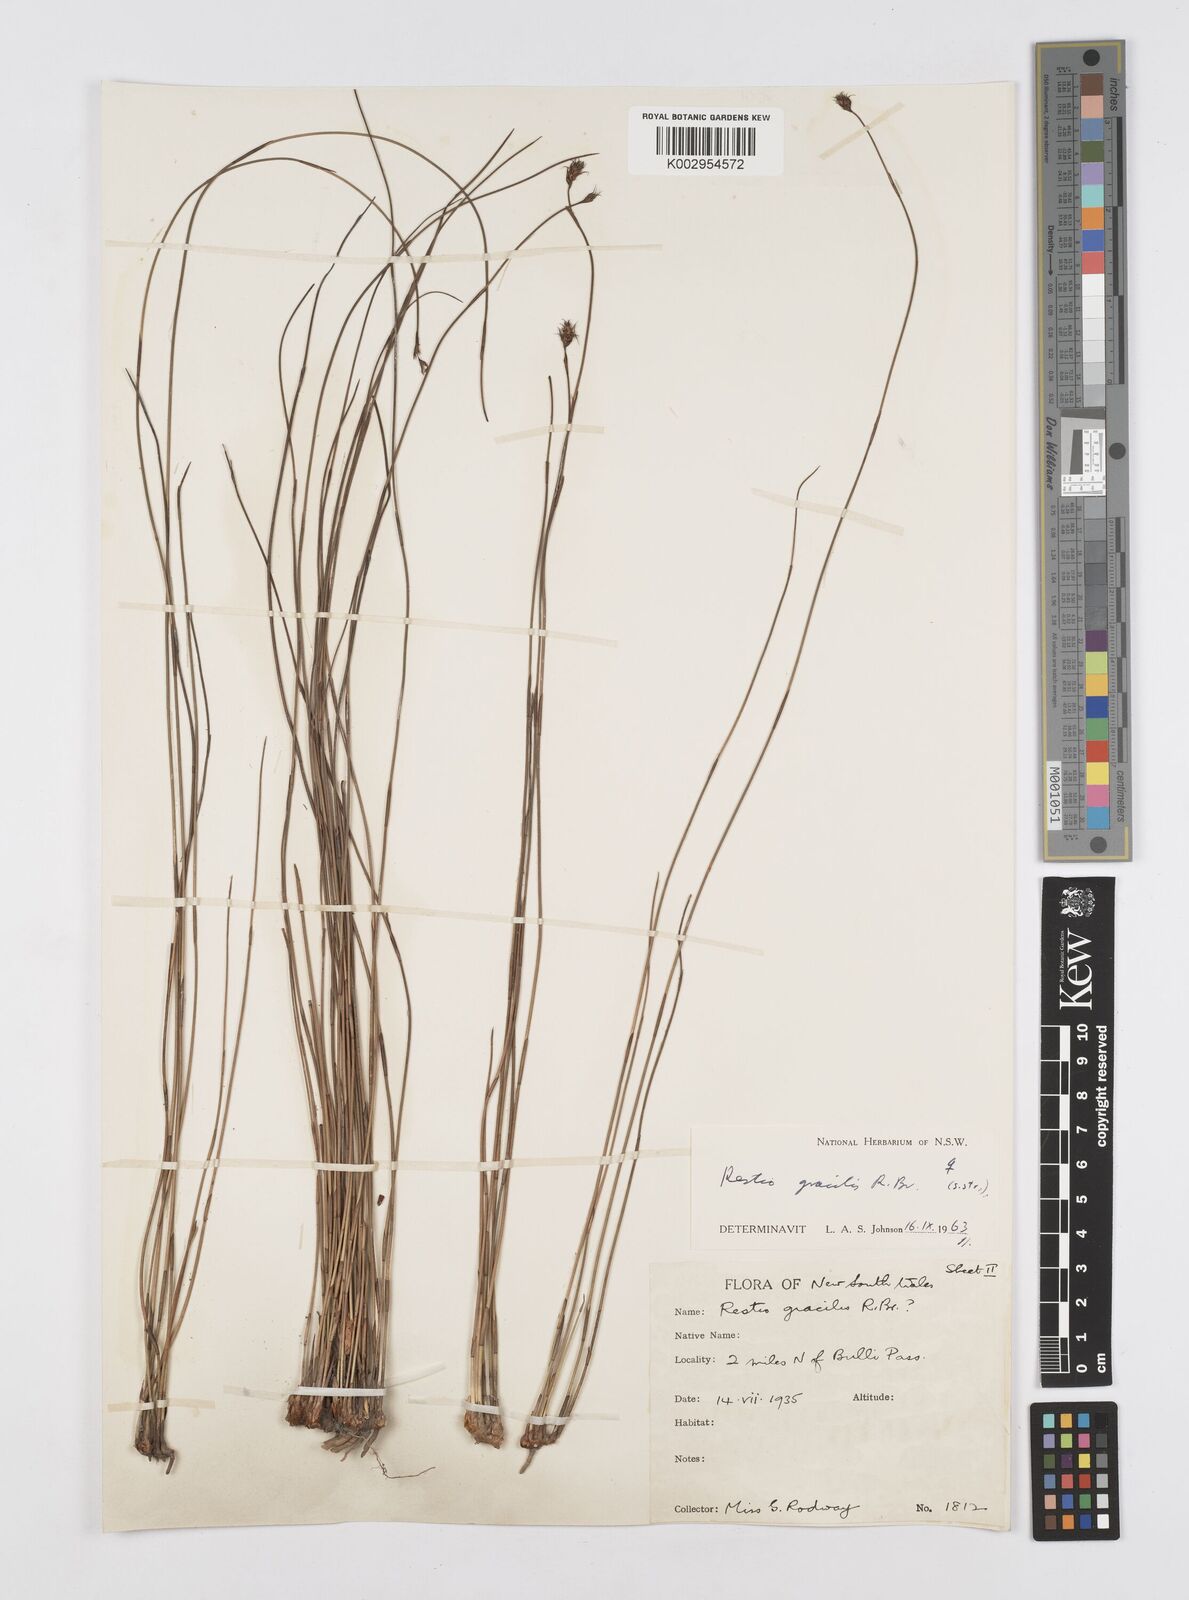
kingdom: Plantae
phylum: Tracheophyta
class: Liliopsida
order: Poales
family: Restionaceae
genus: Baloskion
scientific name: Baloskion gracile
